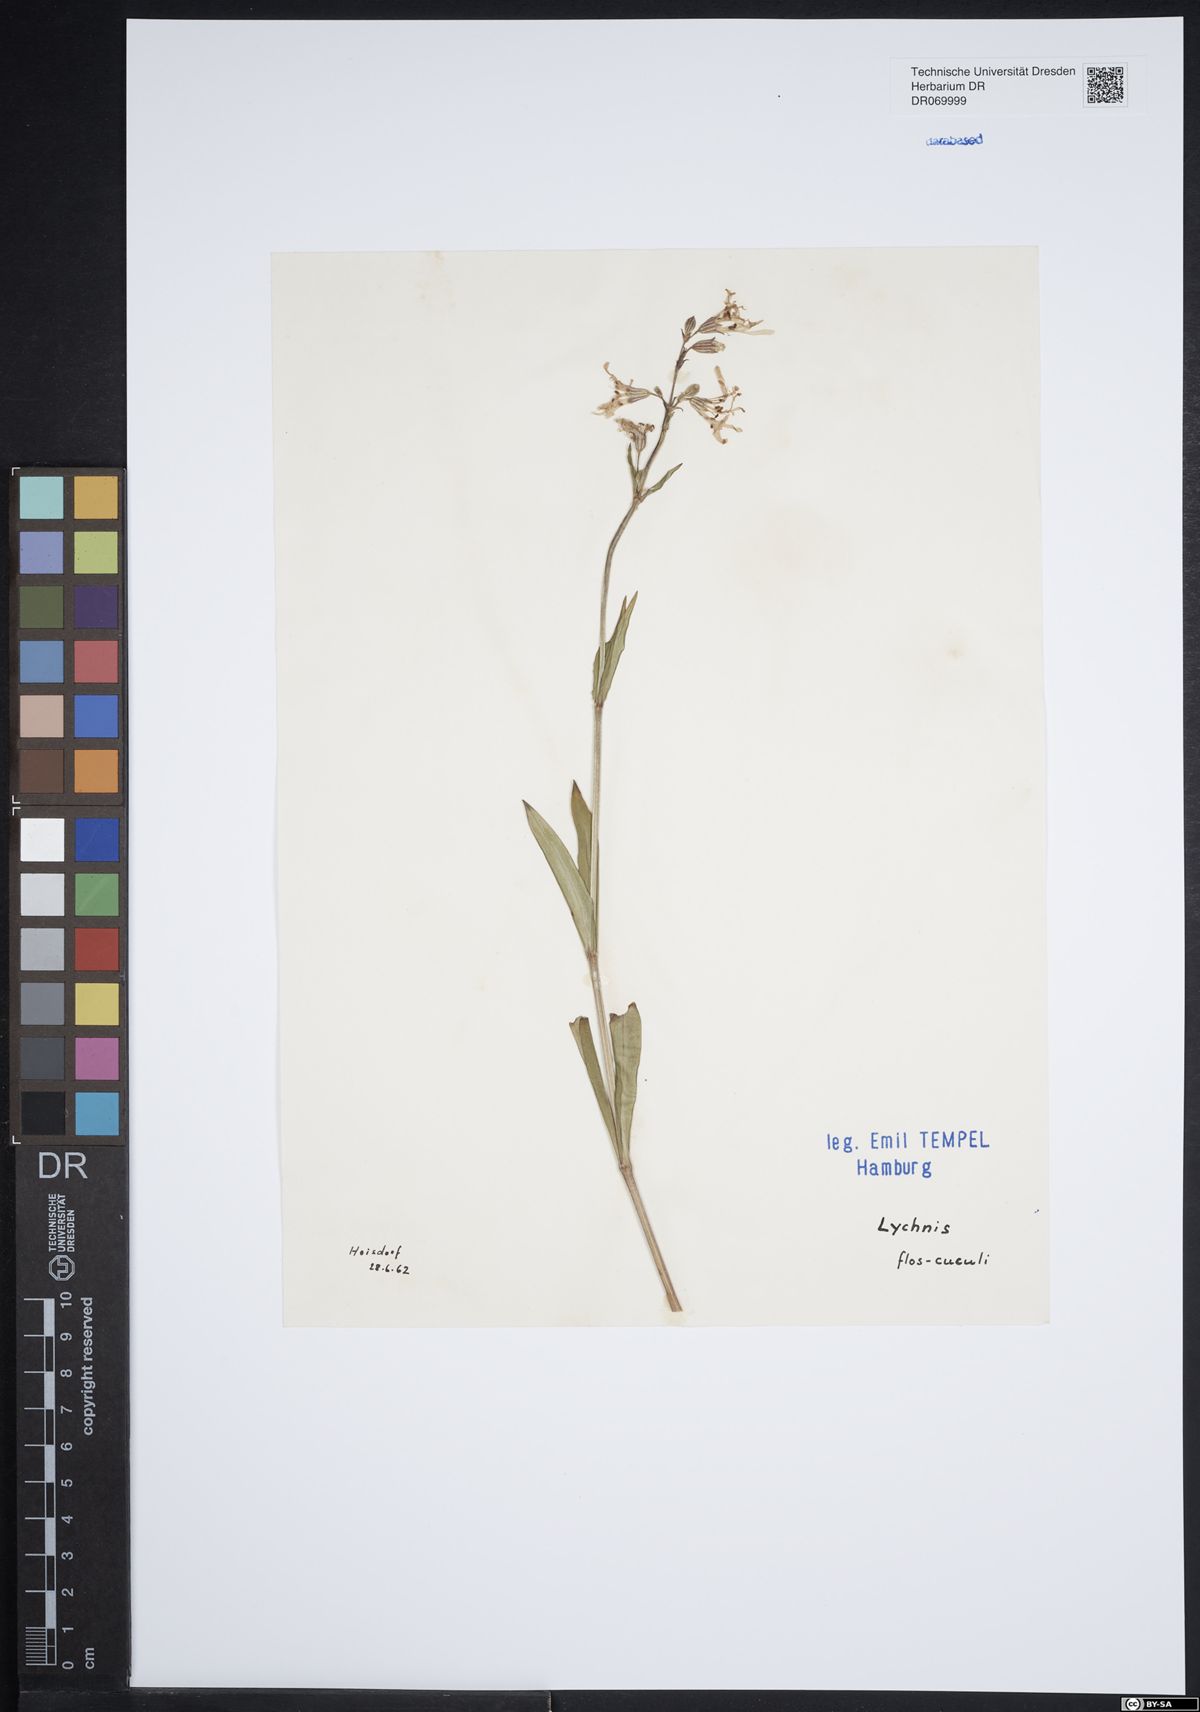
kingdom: Plantae
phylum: Tracheophyta
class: Magnoliopsida
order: Caryophyllales
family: Caryophyllaceae
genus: Silene
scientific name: Silene flos-cuculi
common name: Ragged-robin
